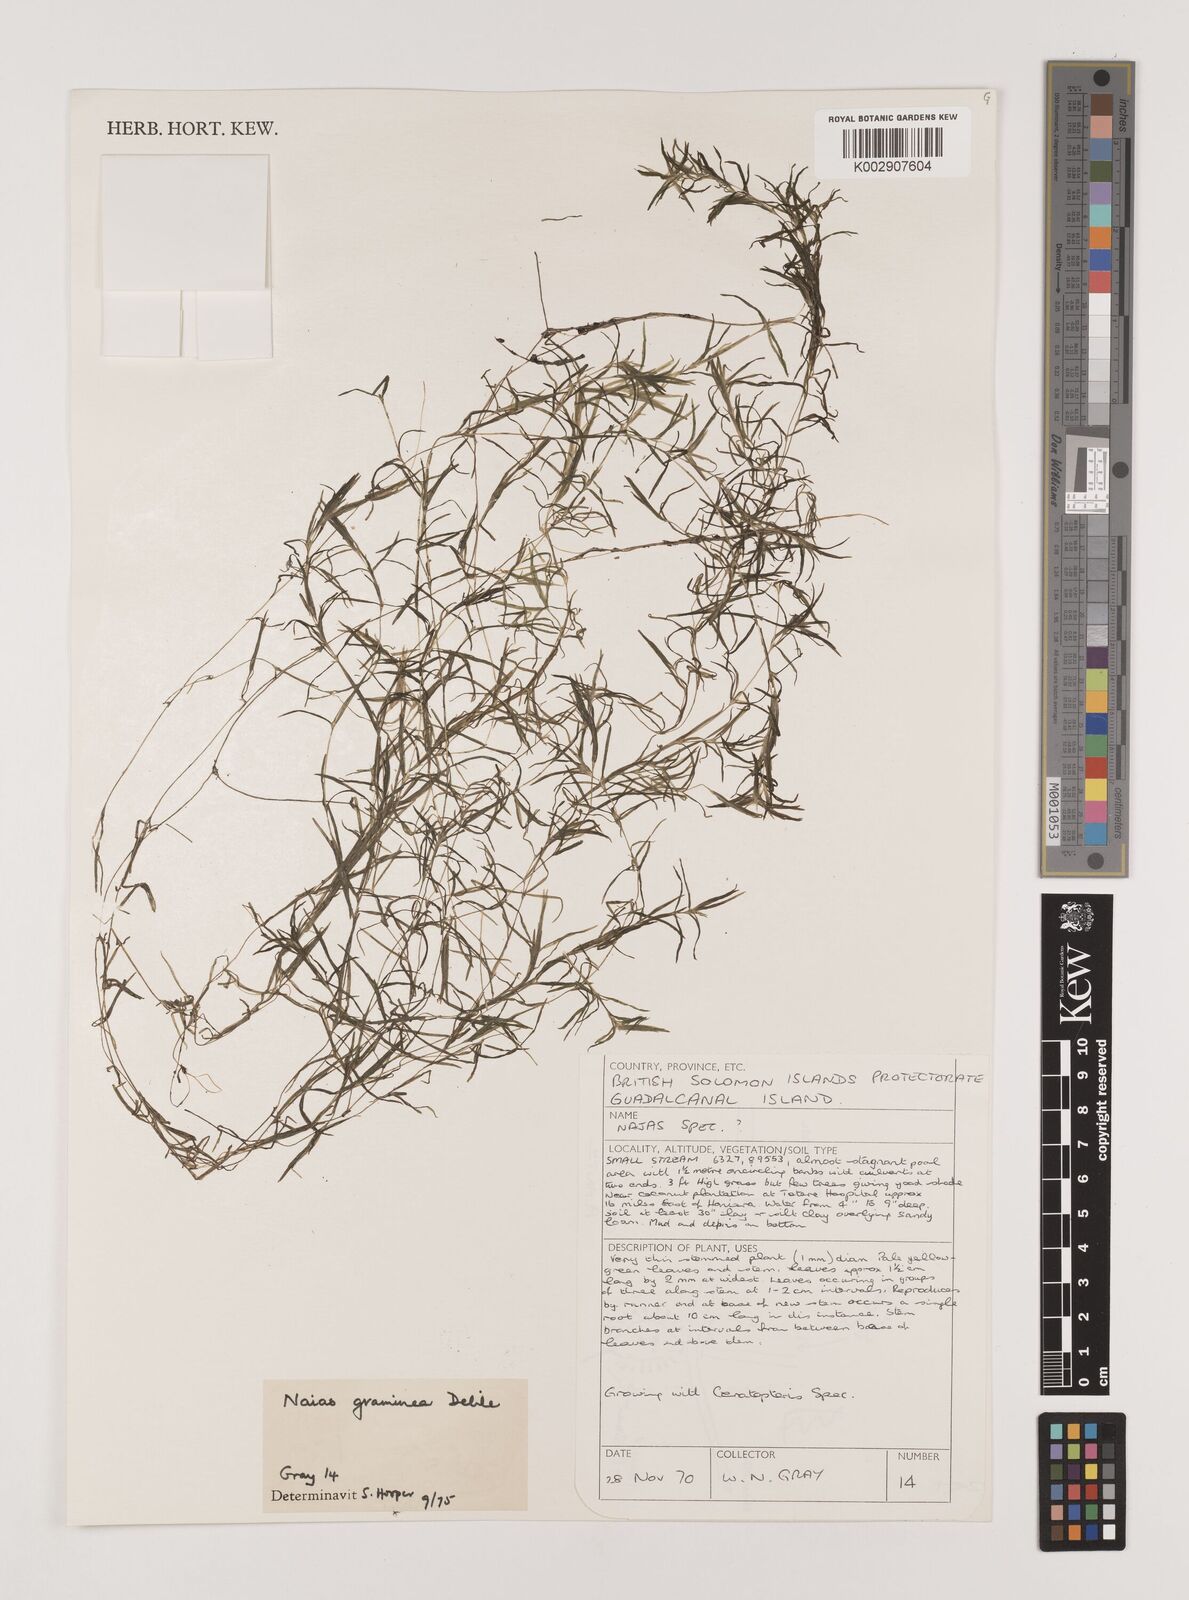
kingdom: Plantae
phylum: Tracheophyta
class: Liliopsida
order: Alismatales
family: Hydrocharitaceae
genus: Najas
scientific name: Najas graminea
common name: Ricefield waternymph
